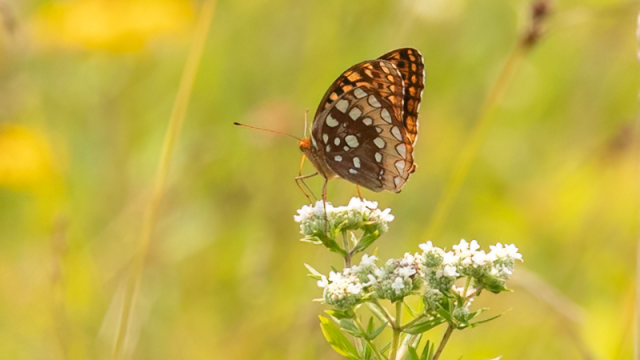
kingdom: Animalia
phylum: Arthropoda
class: Insecta
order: Lepidoptera
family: Nymphalidae
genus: Speyeria
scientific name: Speyeria cybele
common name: Great Spangled Fritillary
